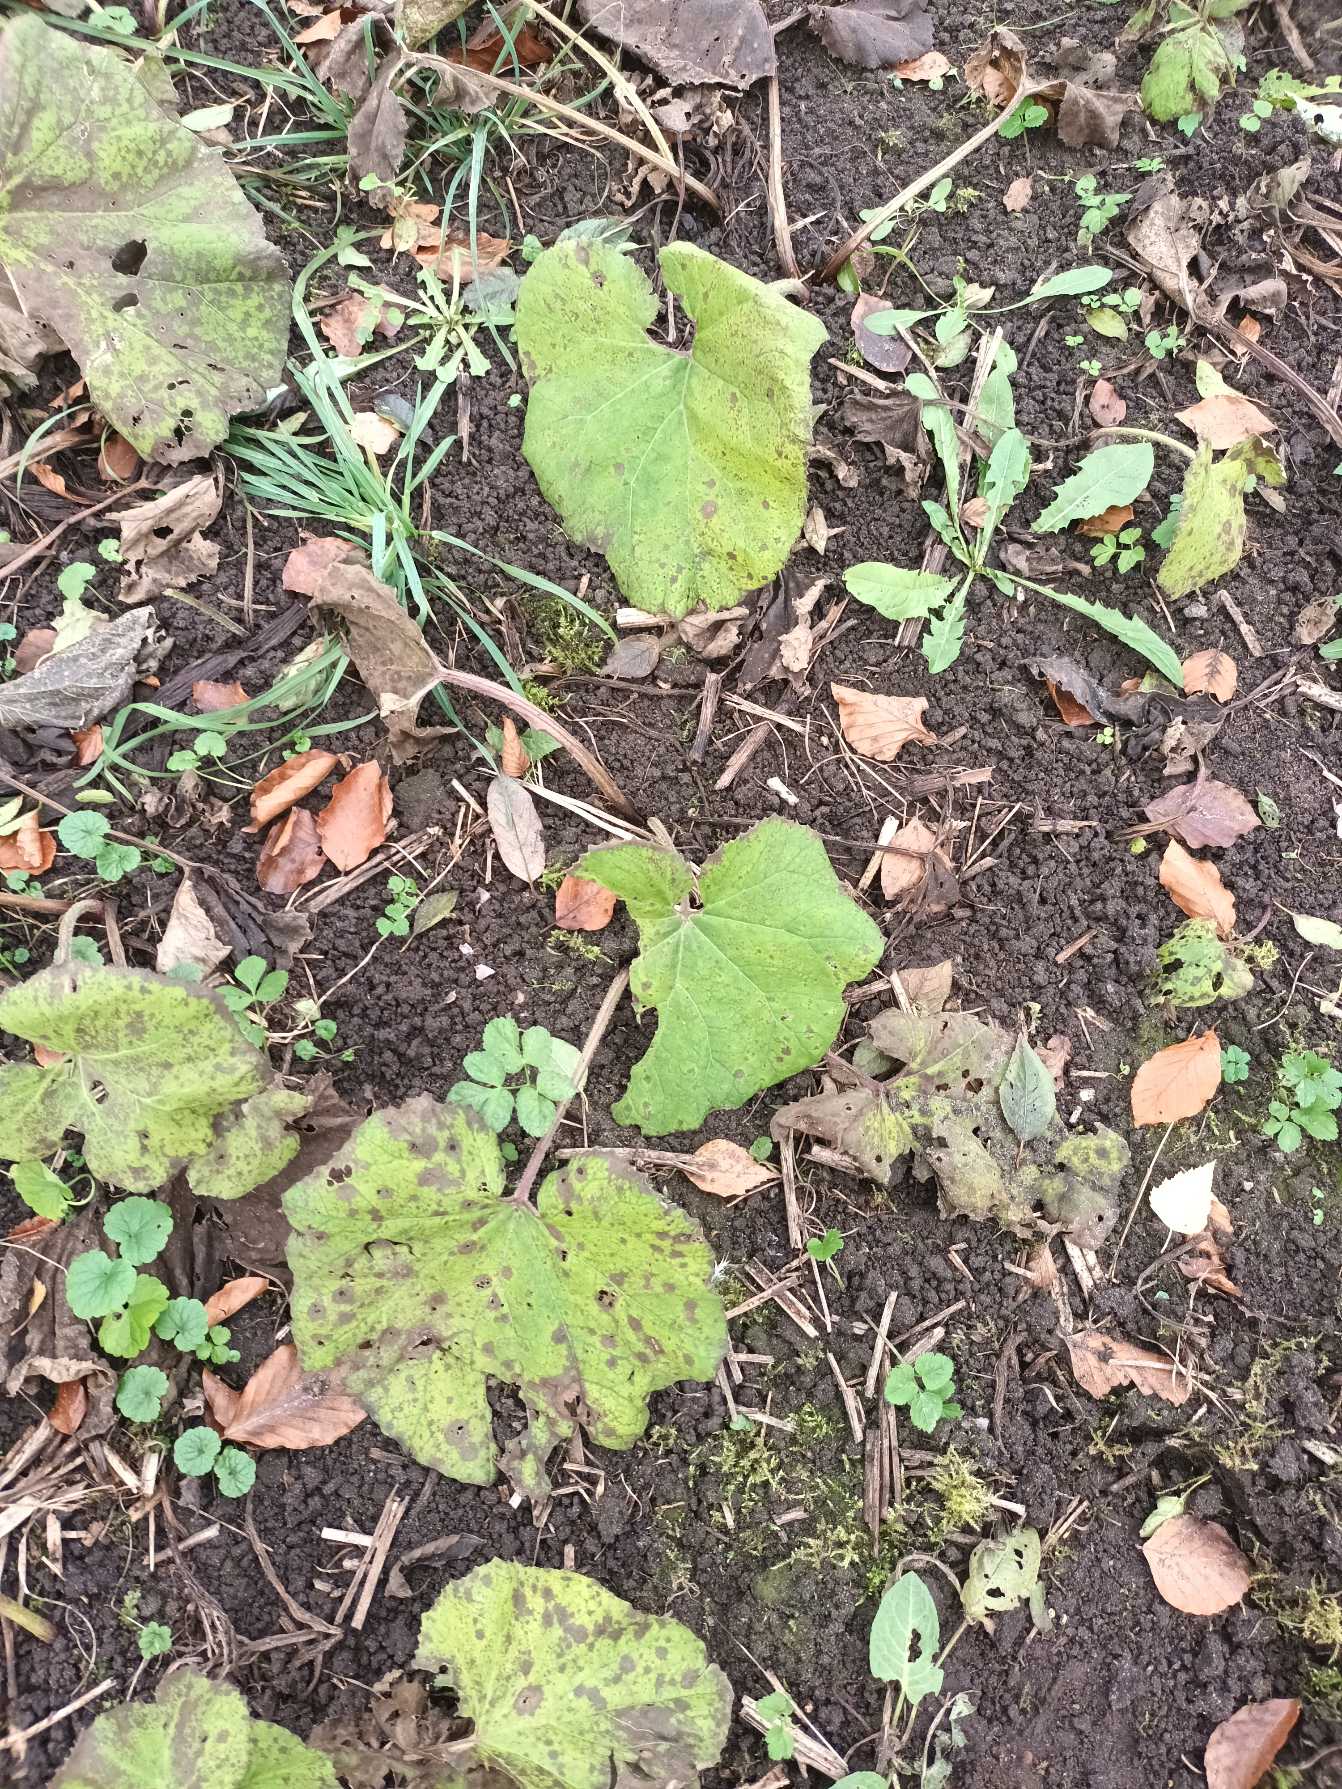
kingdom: Plantae
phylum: Tracheophyta
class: Magnoliopsida
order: Asterales
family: Asteraceae
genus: Petasites
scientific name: Petasites hybridus
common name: Rød hestehov
